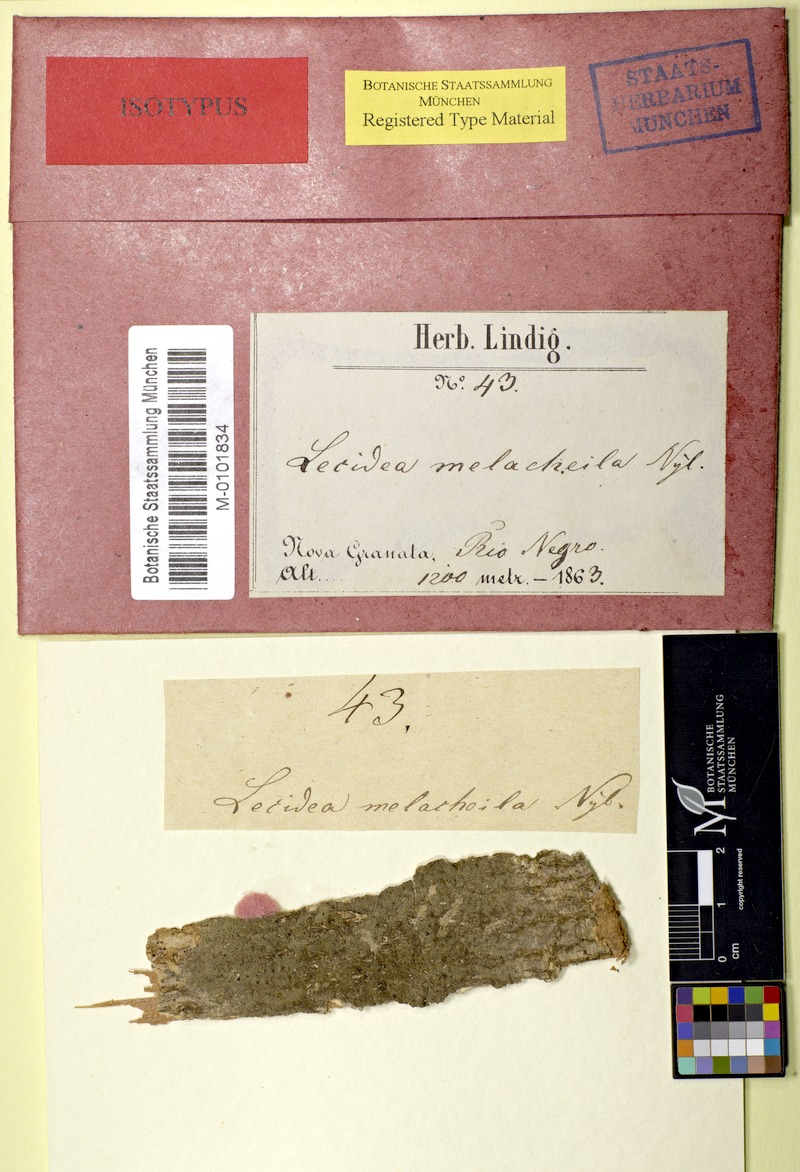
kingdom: Fungi
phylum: Ascomycota
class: Lecanoromycetes
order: Lecanorales
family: Ramalinaceae
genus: Bacidia
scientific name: Bacidia melacheila
